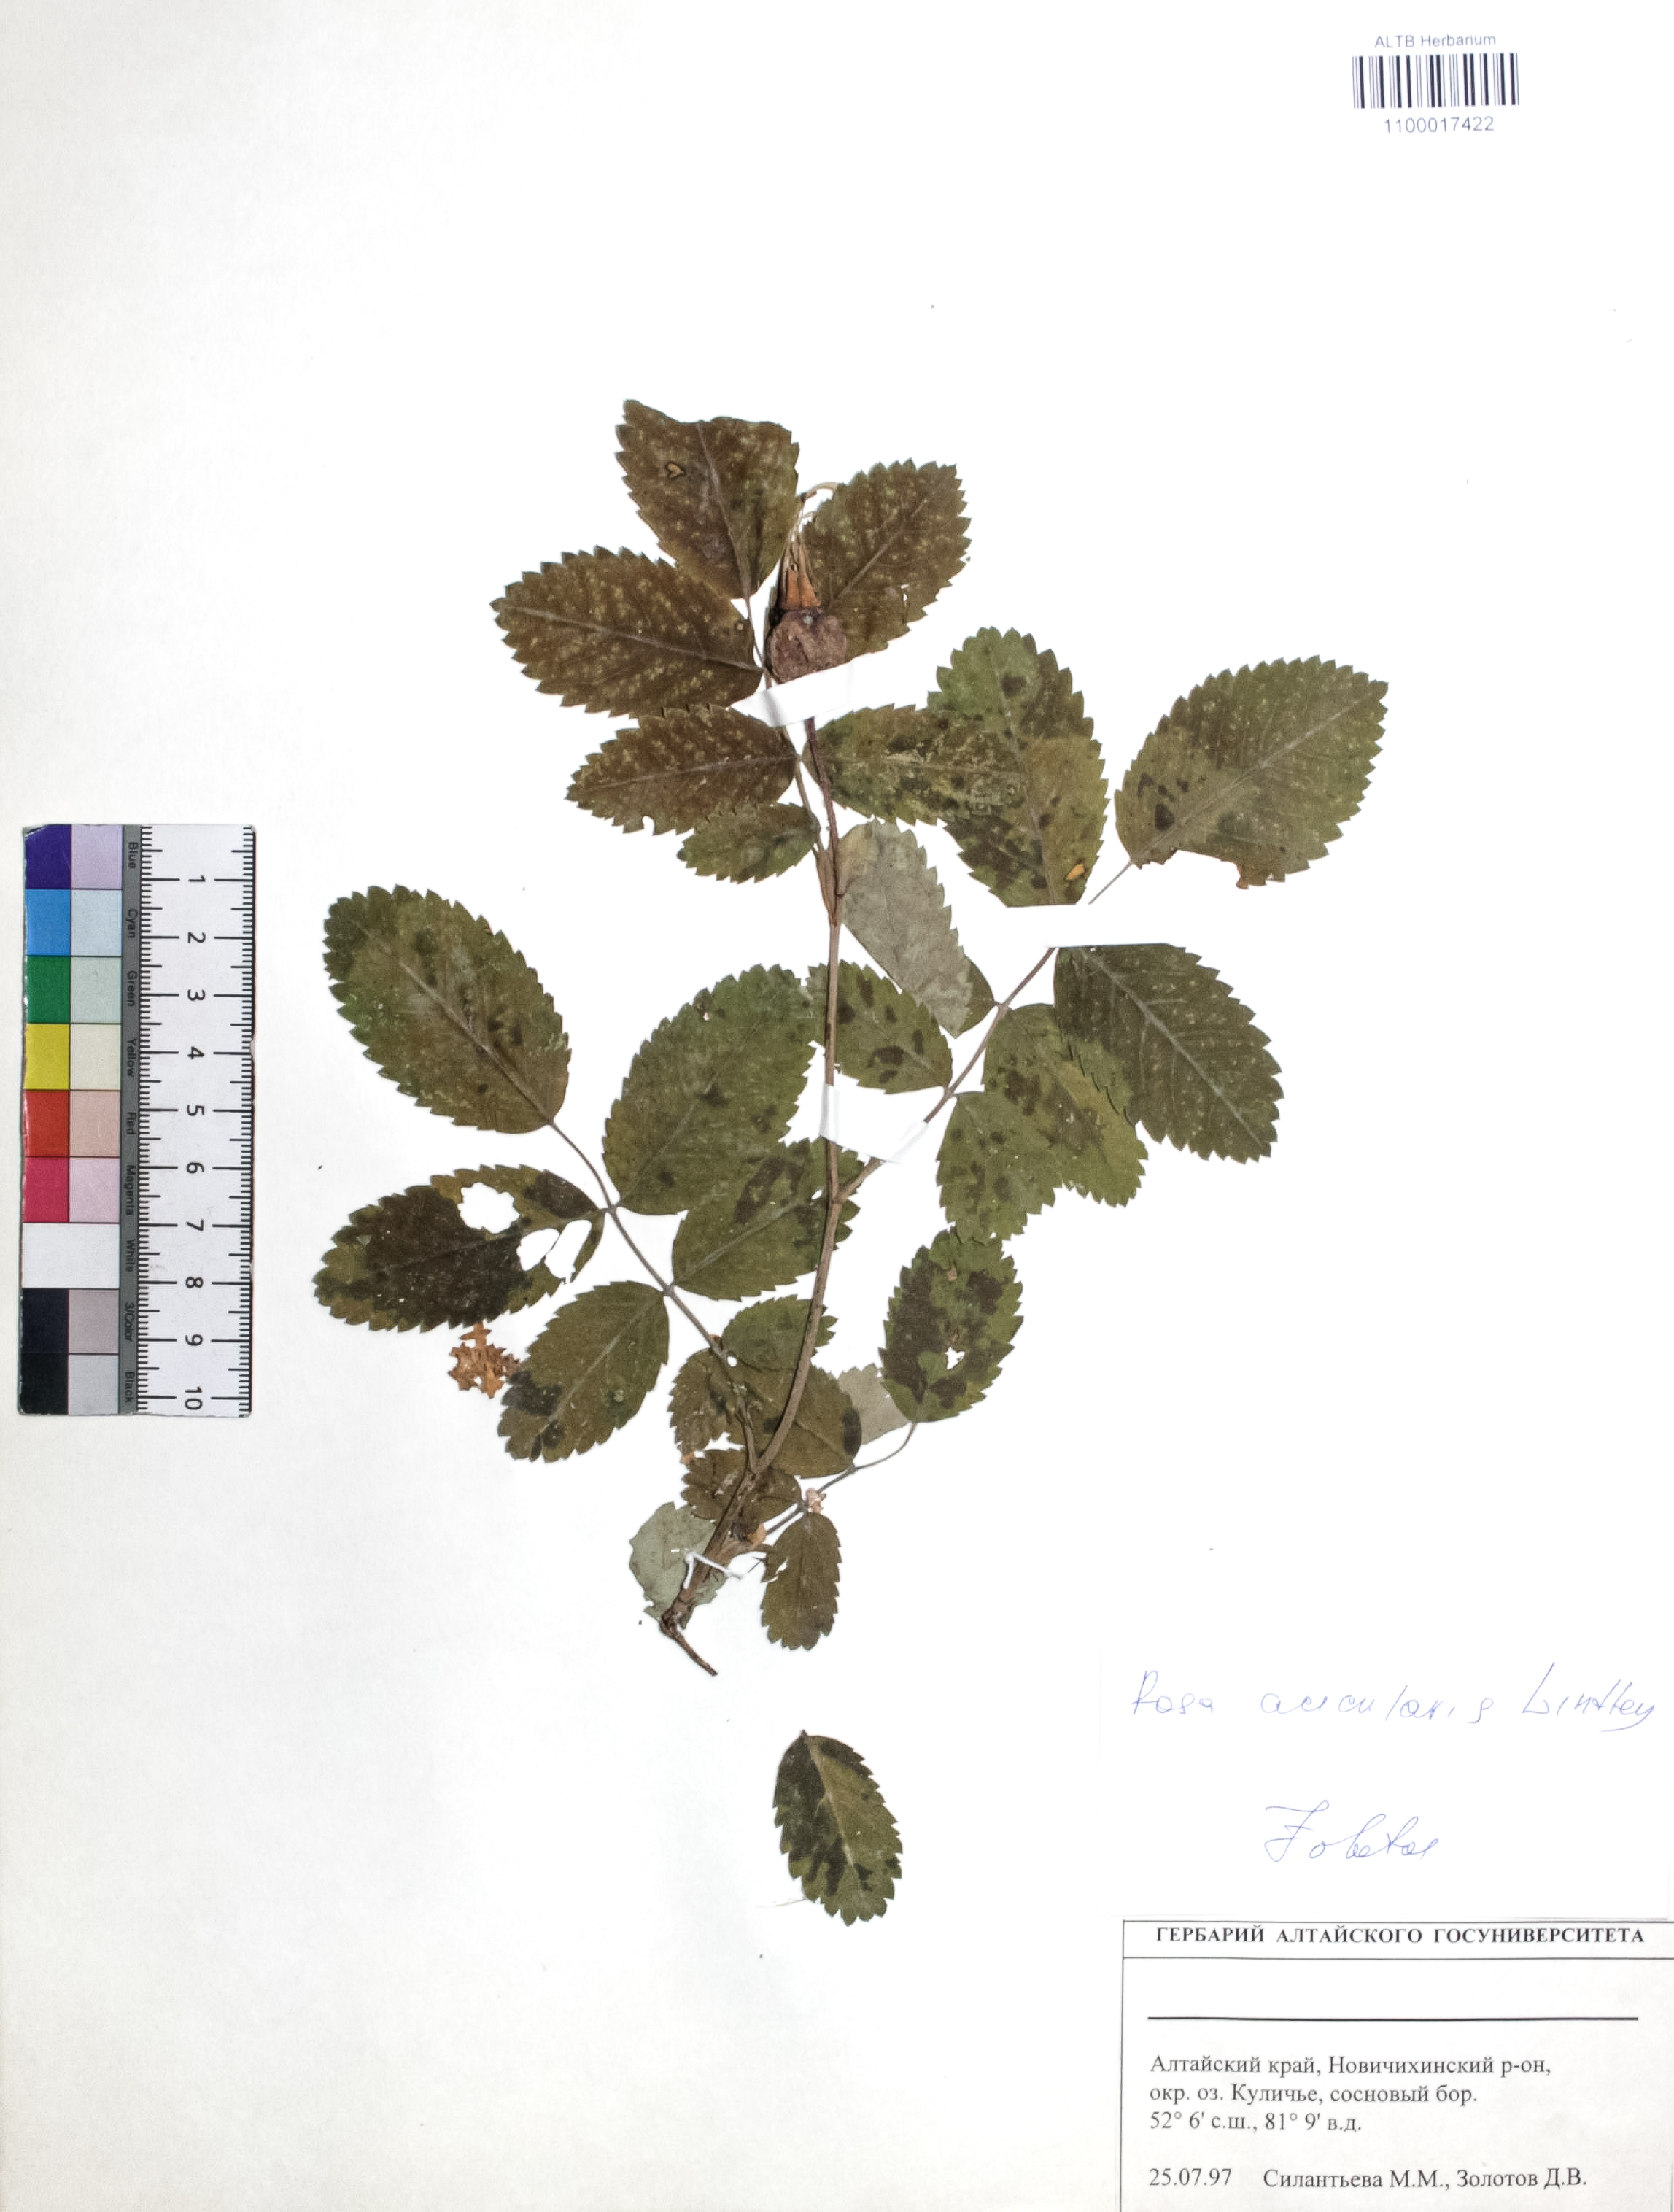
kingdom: Plantae
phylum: Tracheophyta
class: Magnoliopsida
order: Rosales
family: Rosaceae
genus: Rosa
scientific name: Rosa acicularis
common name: Prickly rose
